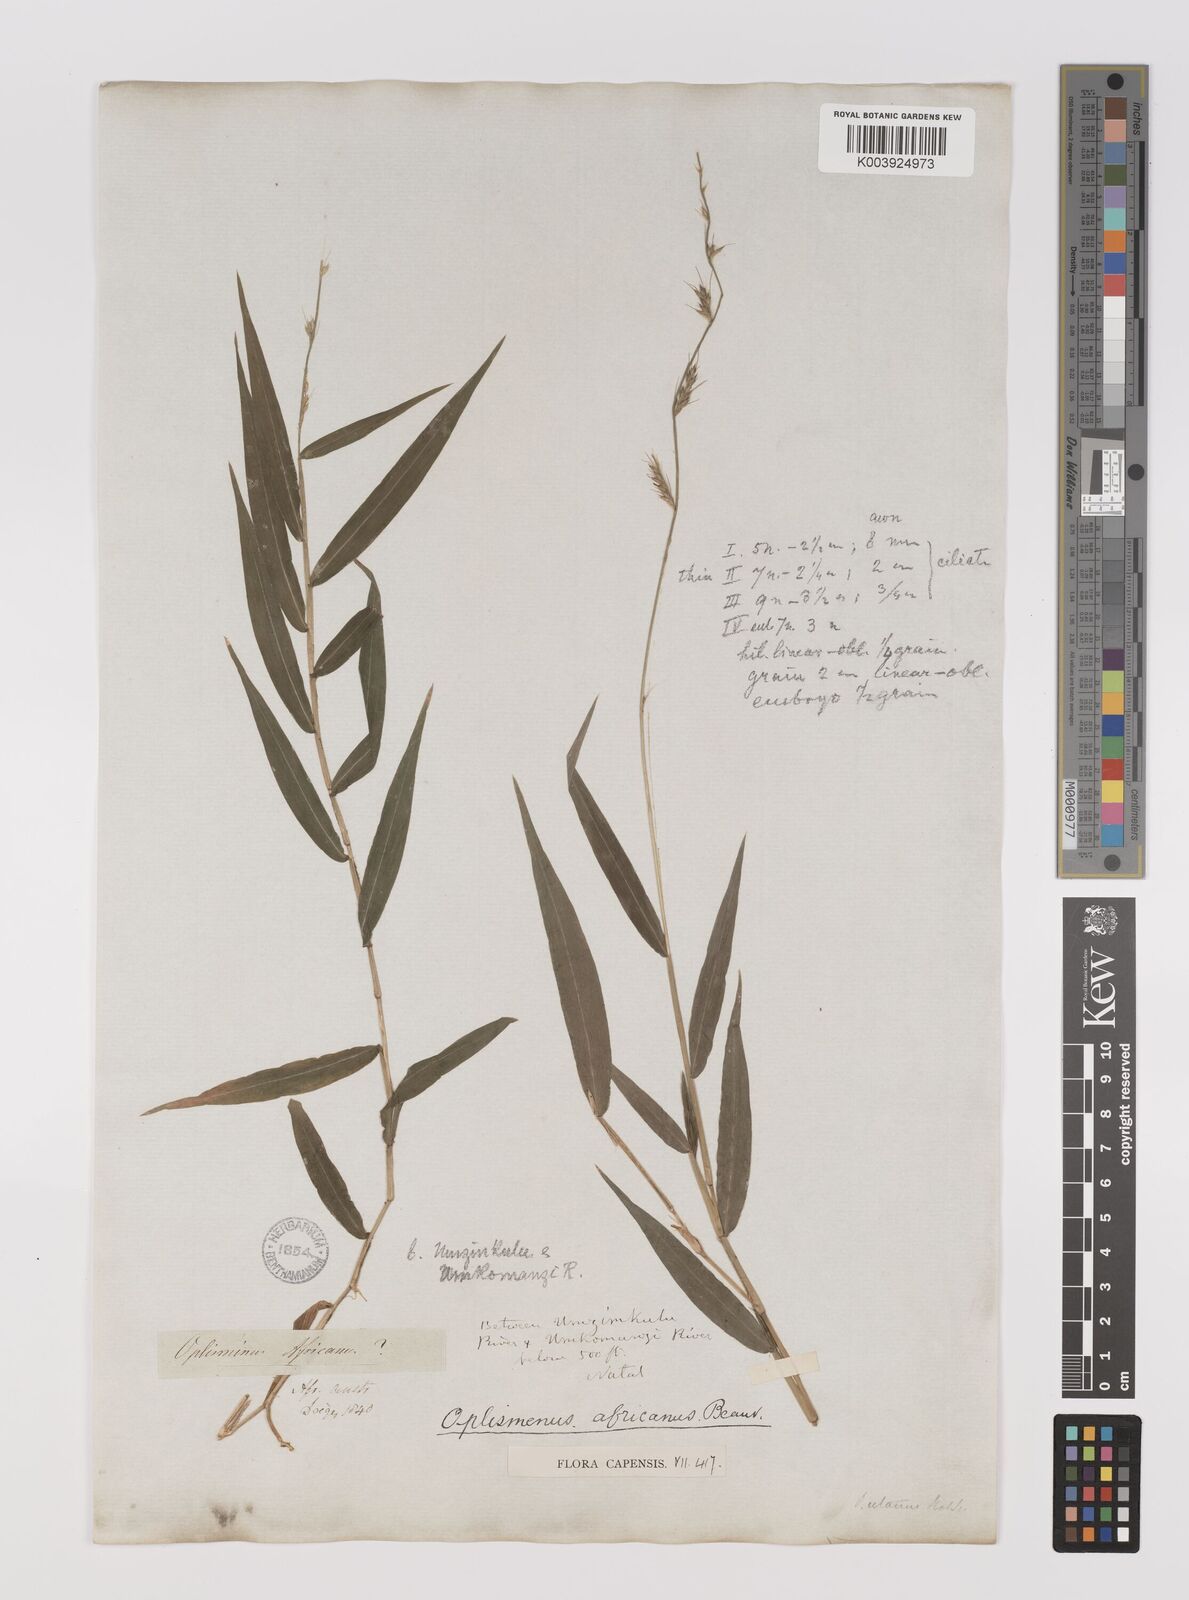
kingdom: Plantae
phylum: Tracheophyta
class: Liliopsida
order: Poales
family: Poaceae
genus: Oplismenus
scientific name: Oplismenus hirtellus
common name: Basketgrass
